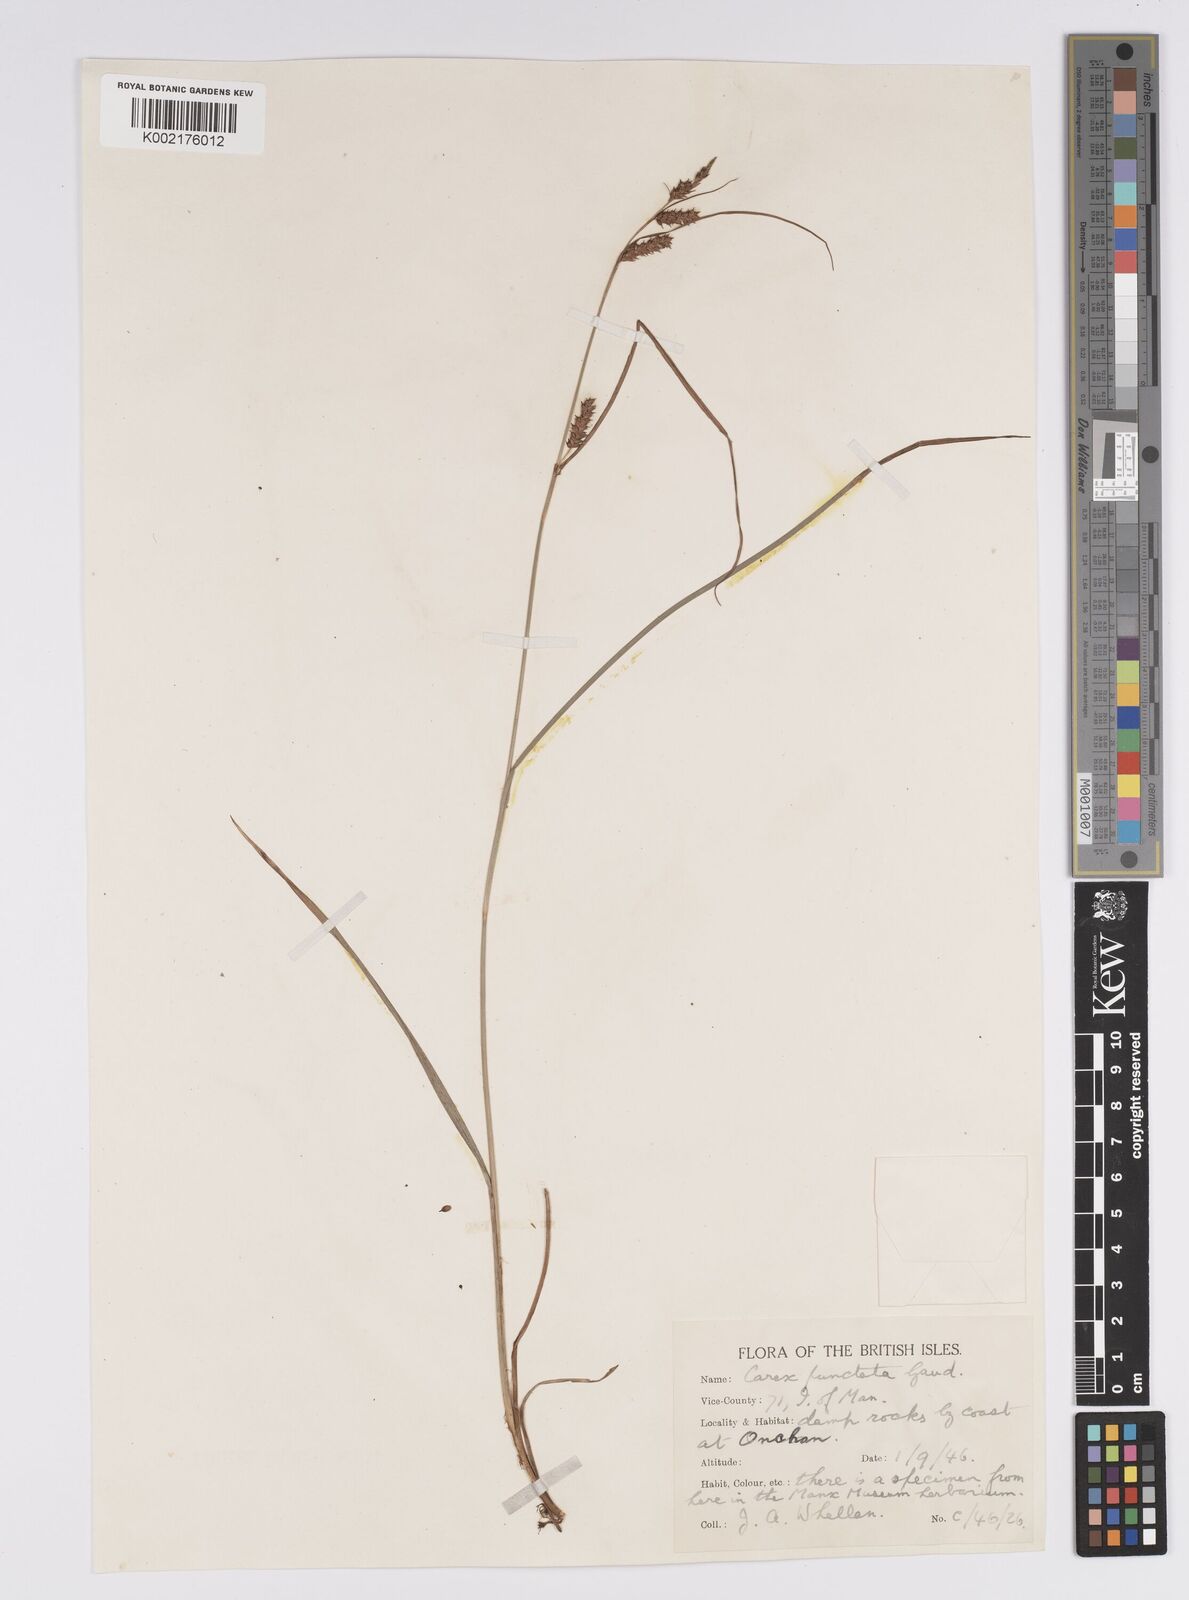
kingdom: Plantae
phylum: Tracheophyta
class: Liliopsida
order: Poales
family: Cyperaceae
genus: Carex
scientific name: Carex punctata
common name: Dotted sedge
